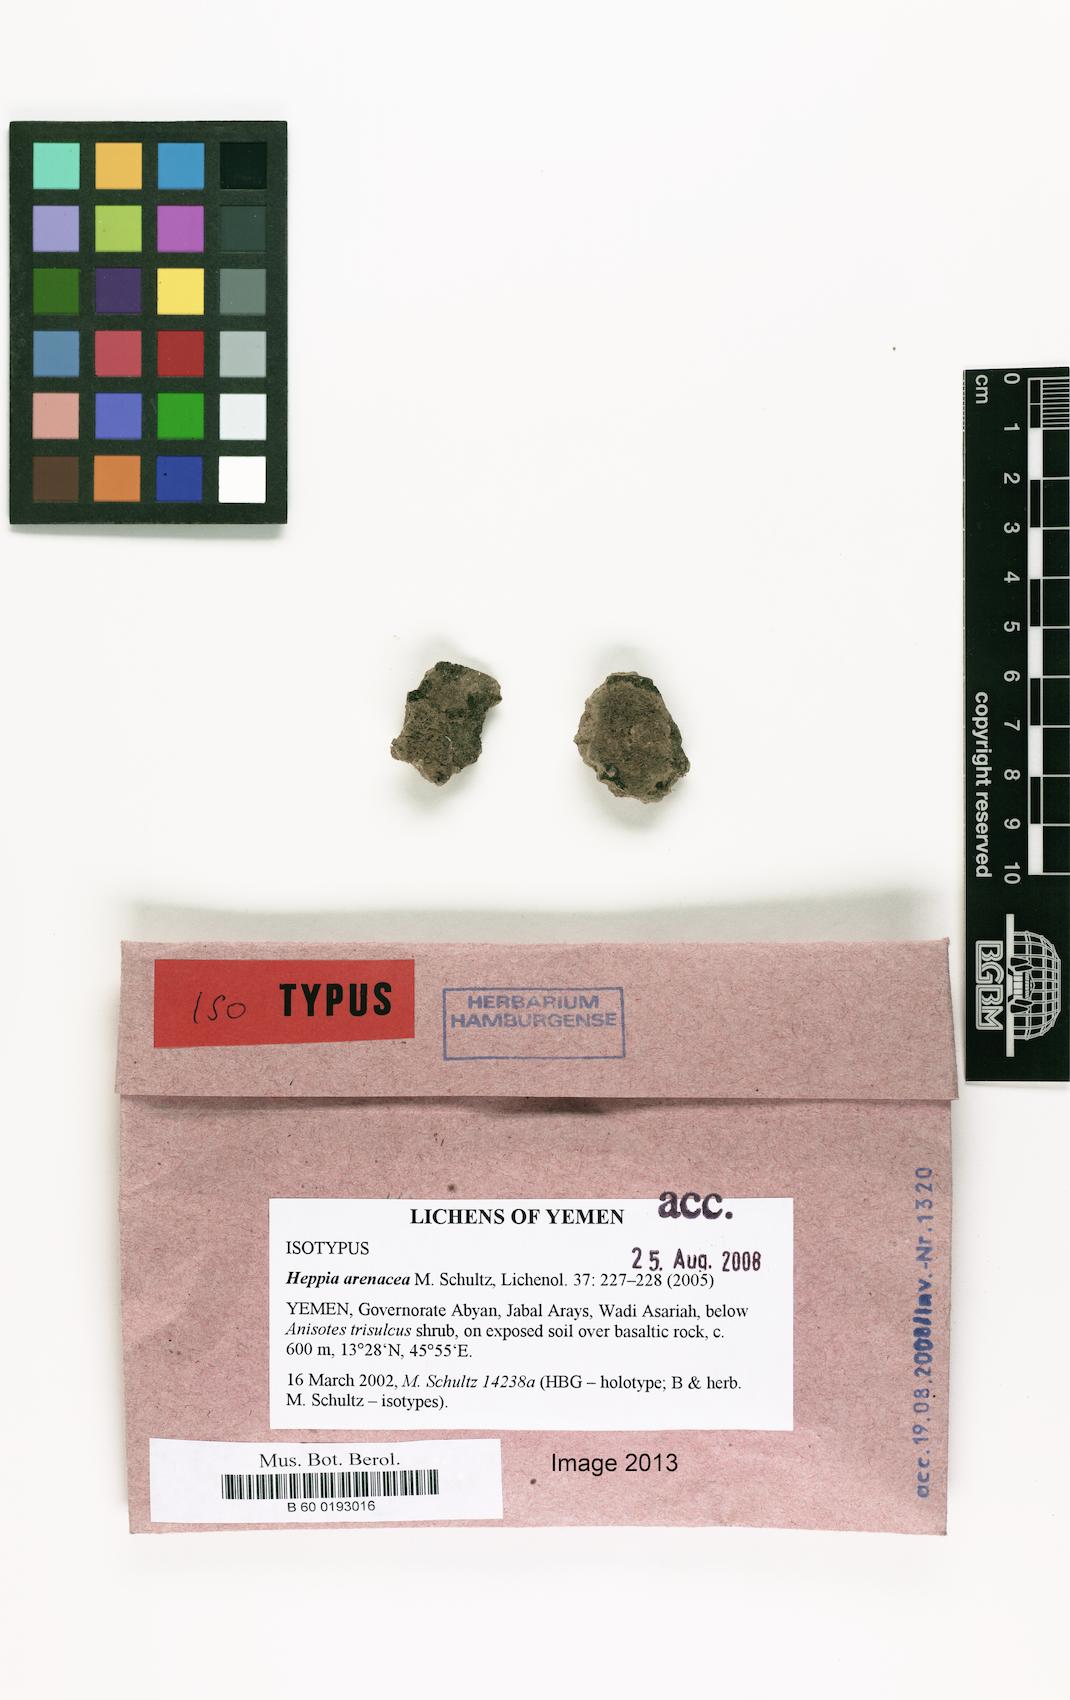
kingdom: Fungi
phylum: Ascomycota
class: Lichinomycetes
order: Lichinales
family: Lichinaceae
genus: Heppia
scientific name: Heppia arenacea
